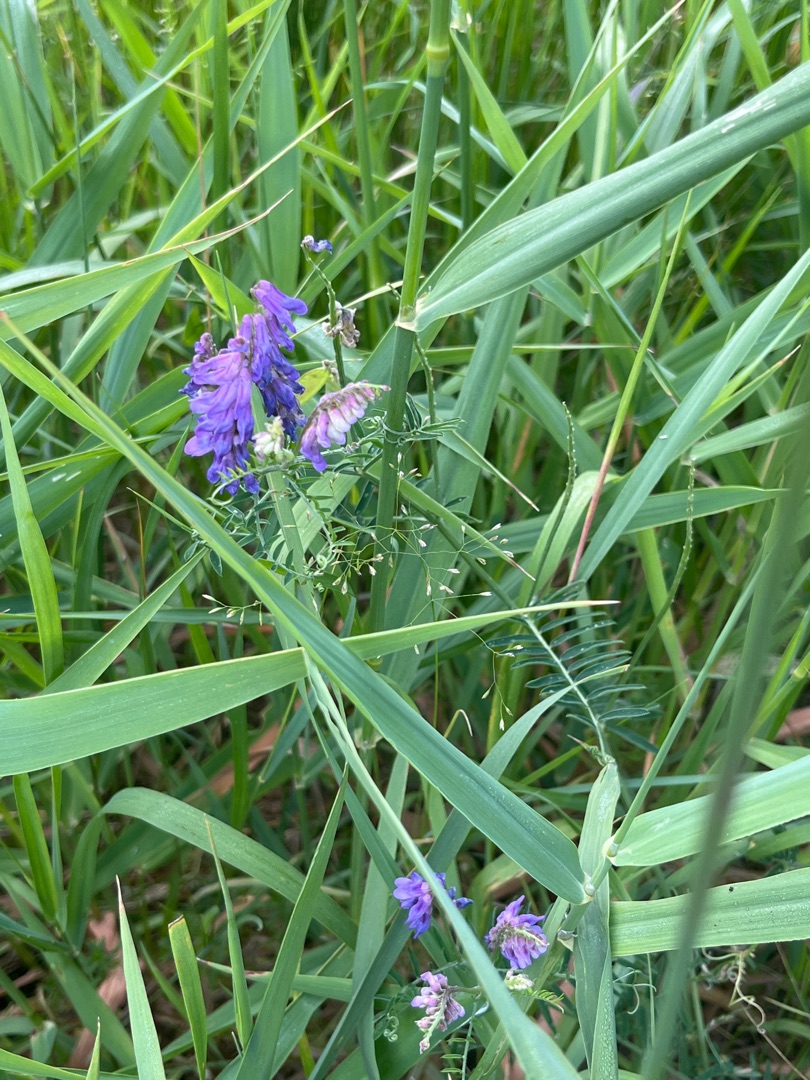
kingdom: Plantae
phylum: Tracheophyta
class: Magnoliopsida
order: Fabales
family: Fabaceae
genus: Vicia
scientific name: Vicia cracca
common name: Muse-vikke
